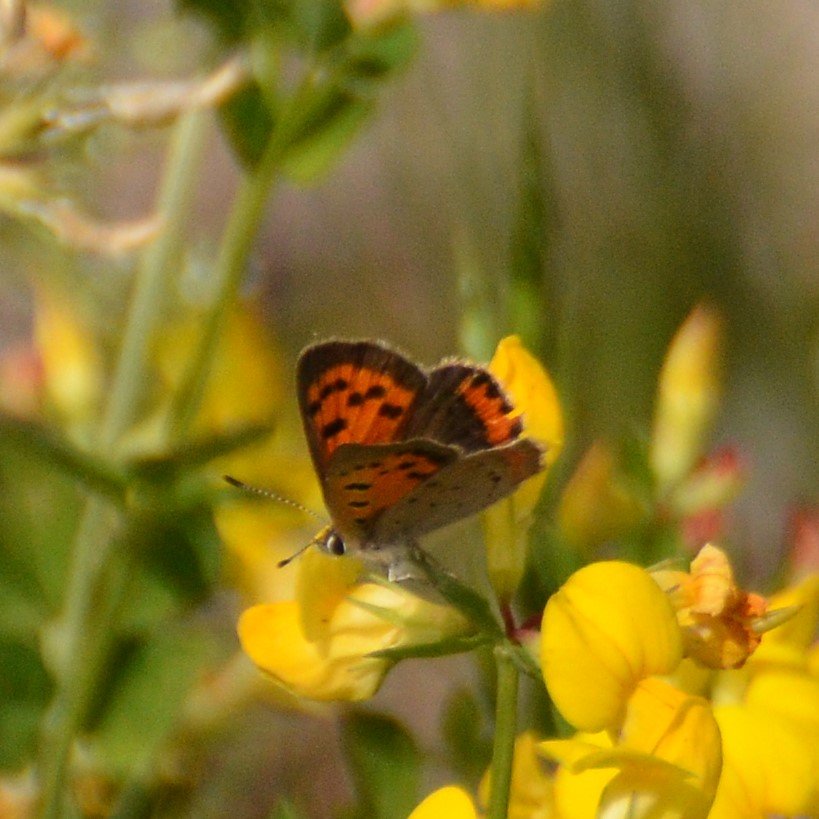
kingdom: Animalia
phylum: Arthropoda
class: Insecta
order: Lepidoptera
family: Lycaenidae
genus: Lycaena
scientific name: Lycaena phlaeas
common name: American Copper
